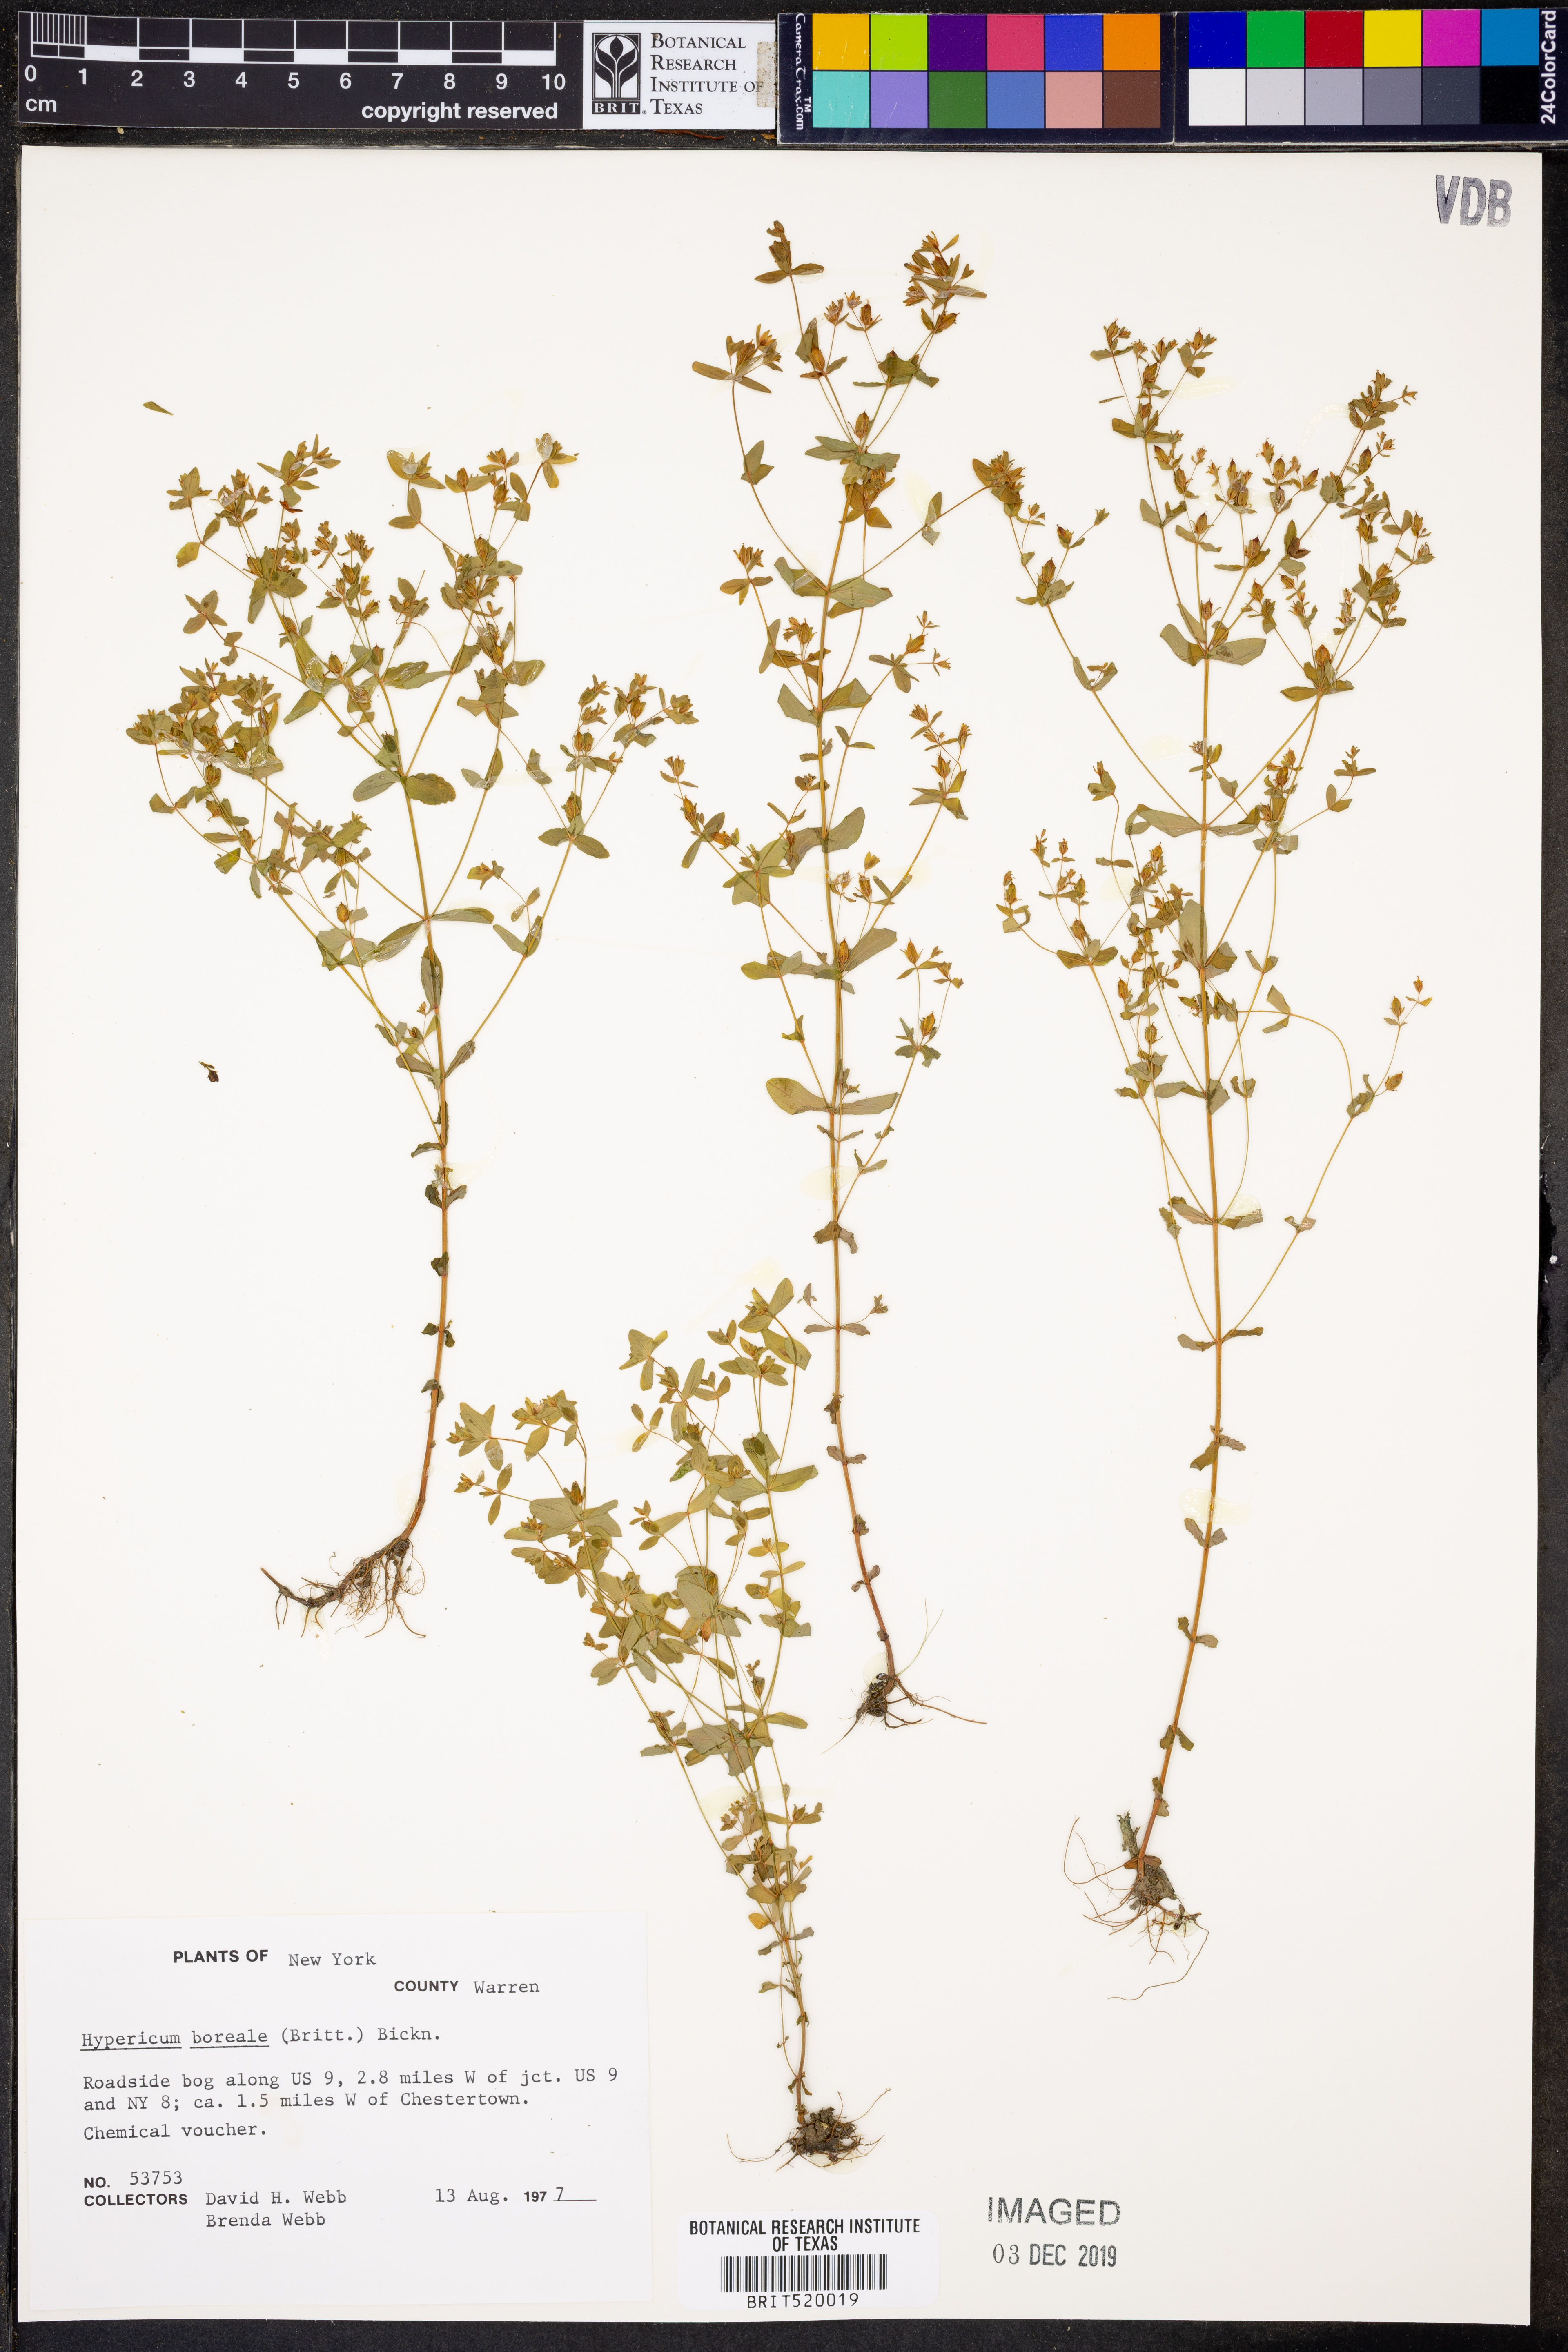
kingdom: Plantae
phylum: Tracheophyta
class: Magnoliopsida
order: Malpighiales
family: Hypericaceae
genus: Hypericum
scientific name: Hypericum boreale
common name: Northern bog st. john's-wort
